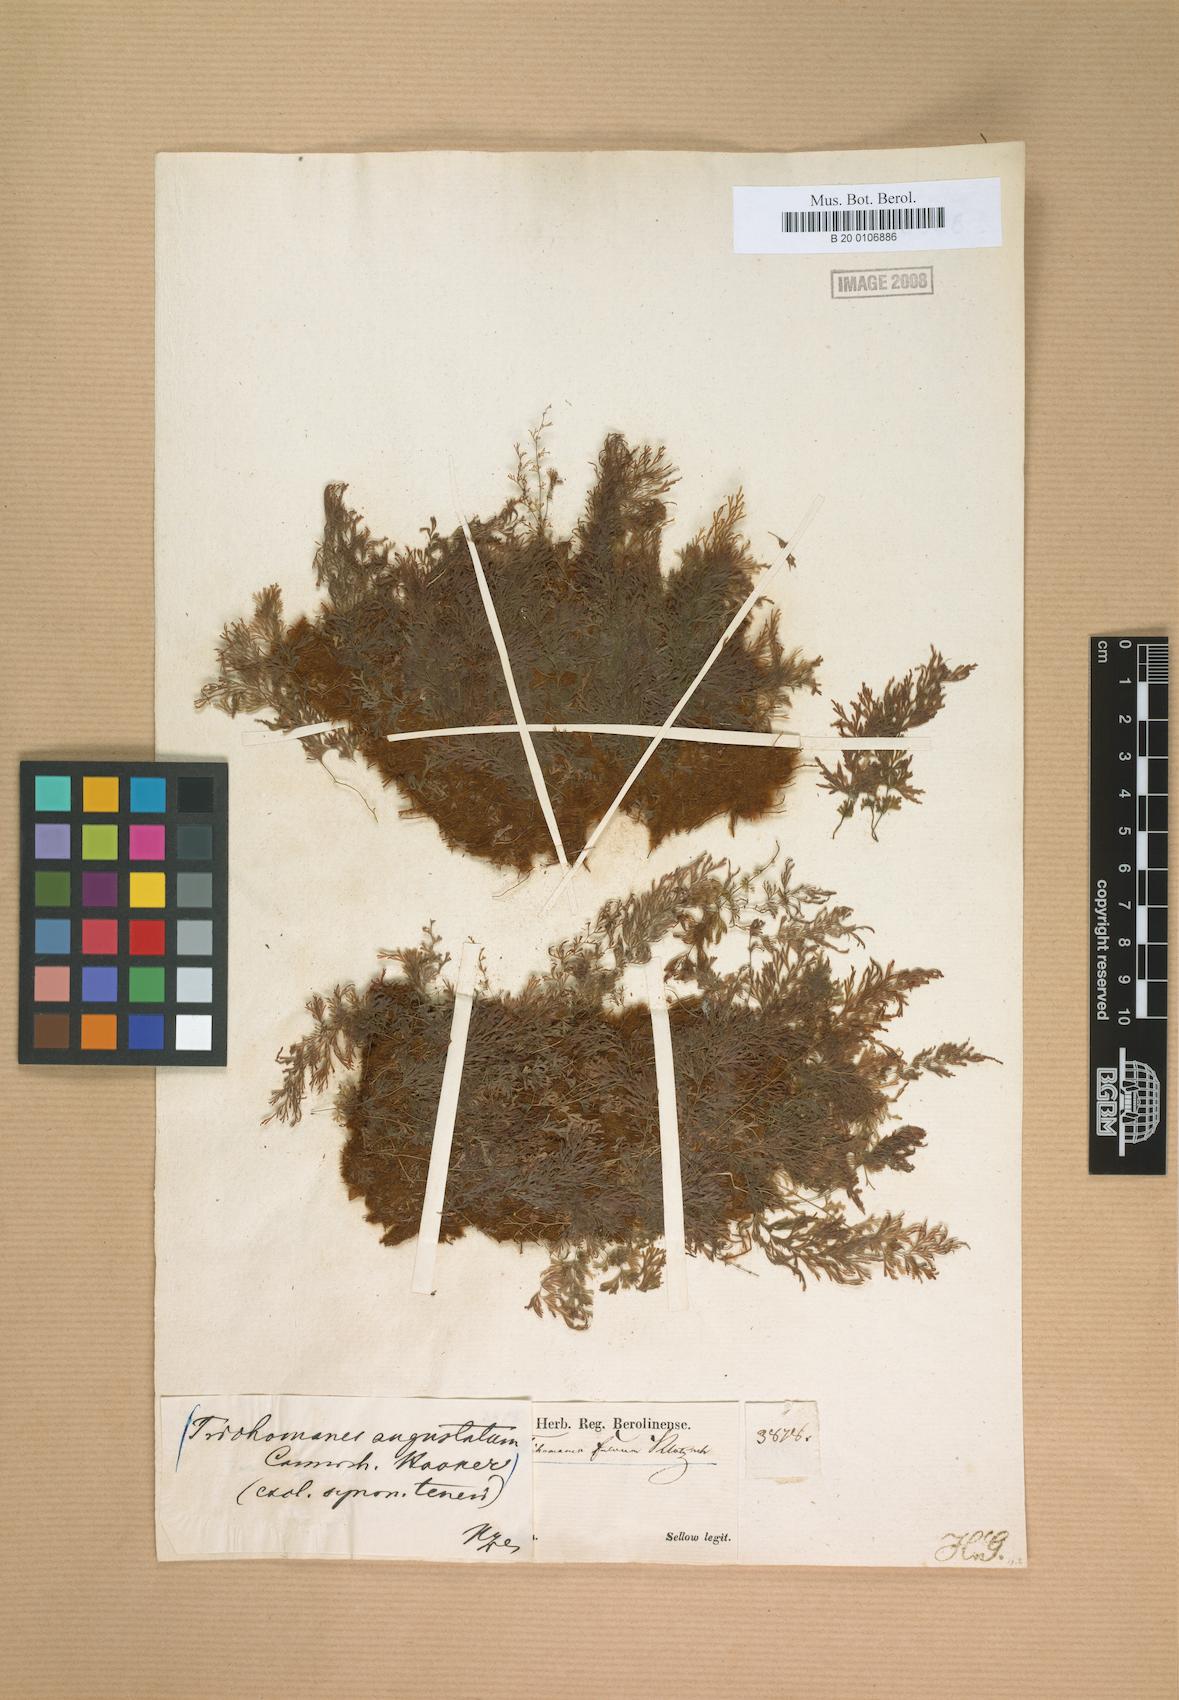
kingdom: Plantae
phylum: Tracheophyta
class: Polypodiopsida
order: Hymenophyllales
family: Hymenophyllaceae
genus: Polyphlebium
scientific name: Polyphlebium angustatum
